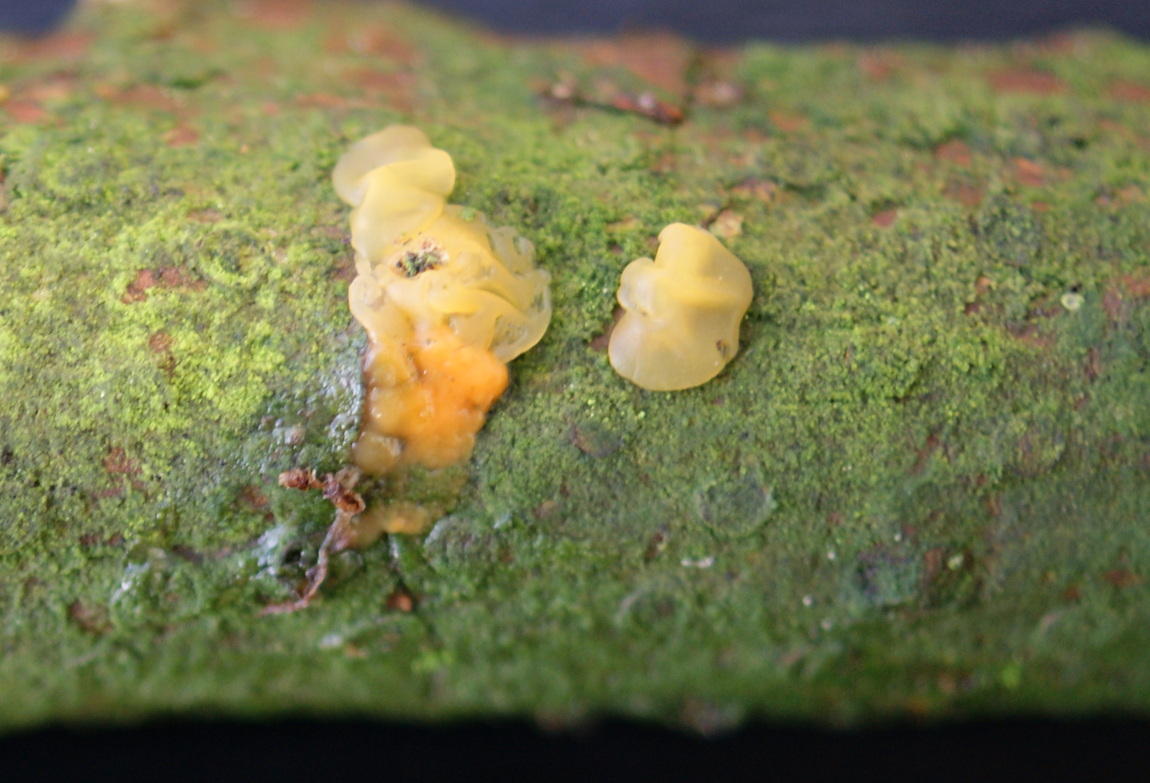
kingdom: Fungi
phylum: Basidiomycota
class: Dacrymycetes
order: Dacrymycetales
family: Dacrymycetaceae
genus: Dacrymyces
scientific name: Dacrymyces stillatus
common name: almindelig tåresvamp
